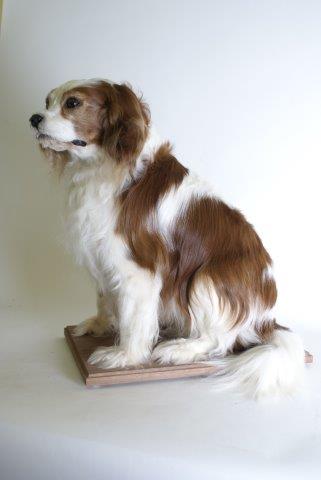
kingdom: Animalia
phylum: Chordata
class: Mammalia
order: Carnivora
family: Canidae
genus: Canis
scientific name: Canis lupus
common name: Gray wolf
